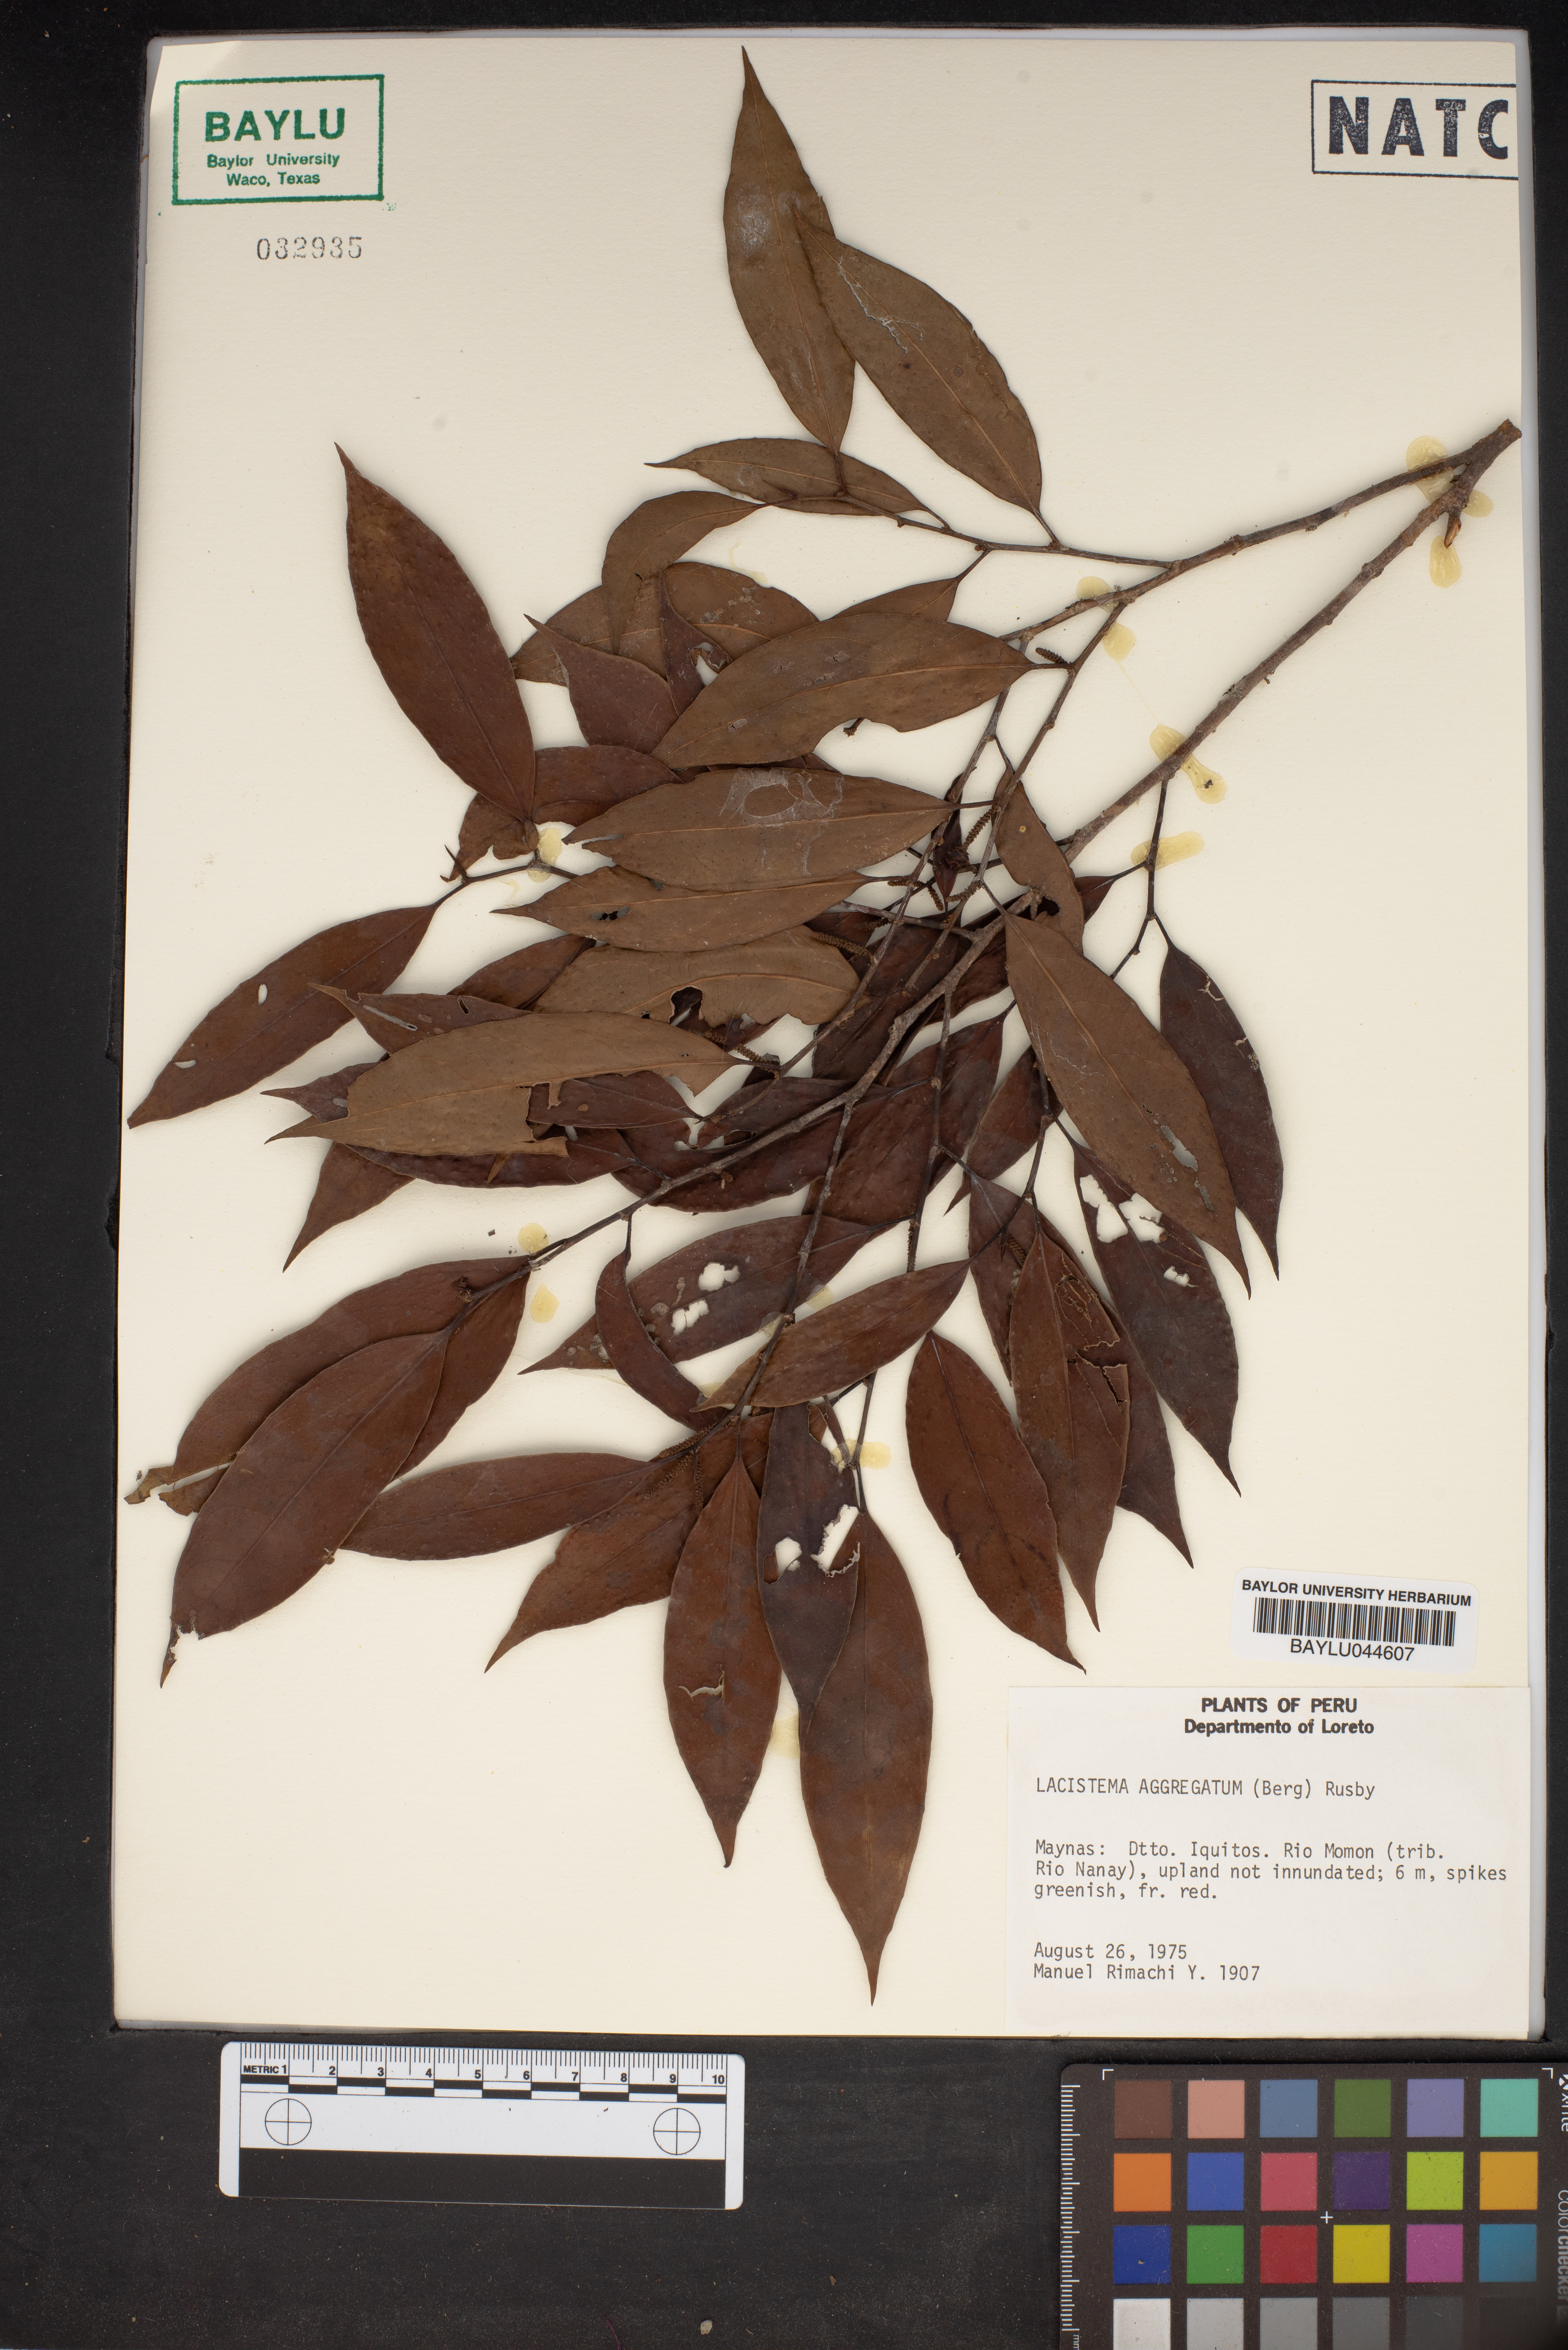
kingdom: Plantae
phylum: Tracheophyta
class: Magnoliopsida
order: Malpighiales
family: Lacistemataceae
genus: Lacistema
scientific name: Lacistema aggregatum
